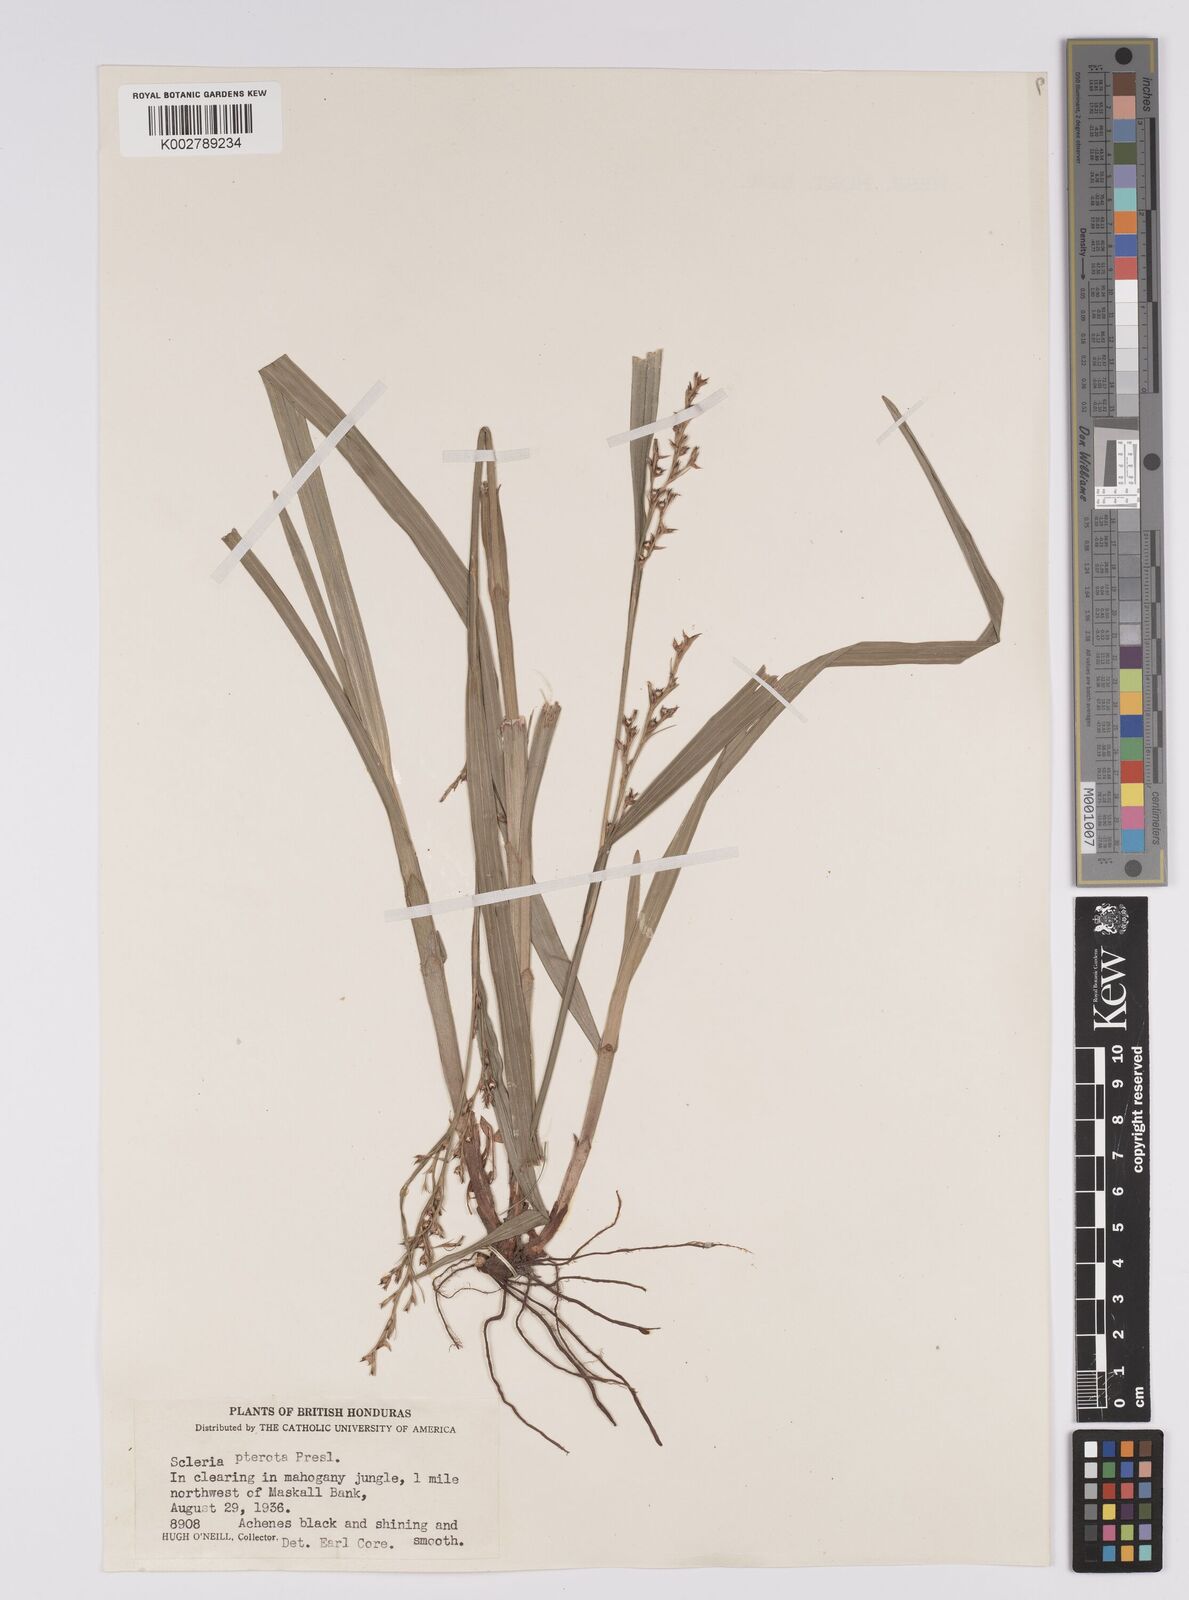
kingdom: Plantae
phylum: Tracheophyta
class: Liliopsida
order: Poales
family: Cyperaceae
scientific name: Cyperaceae
